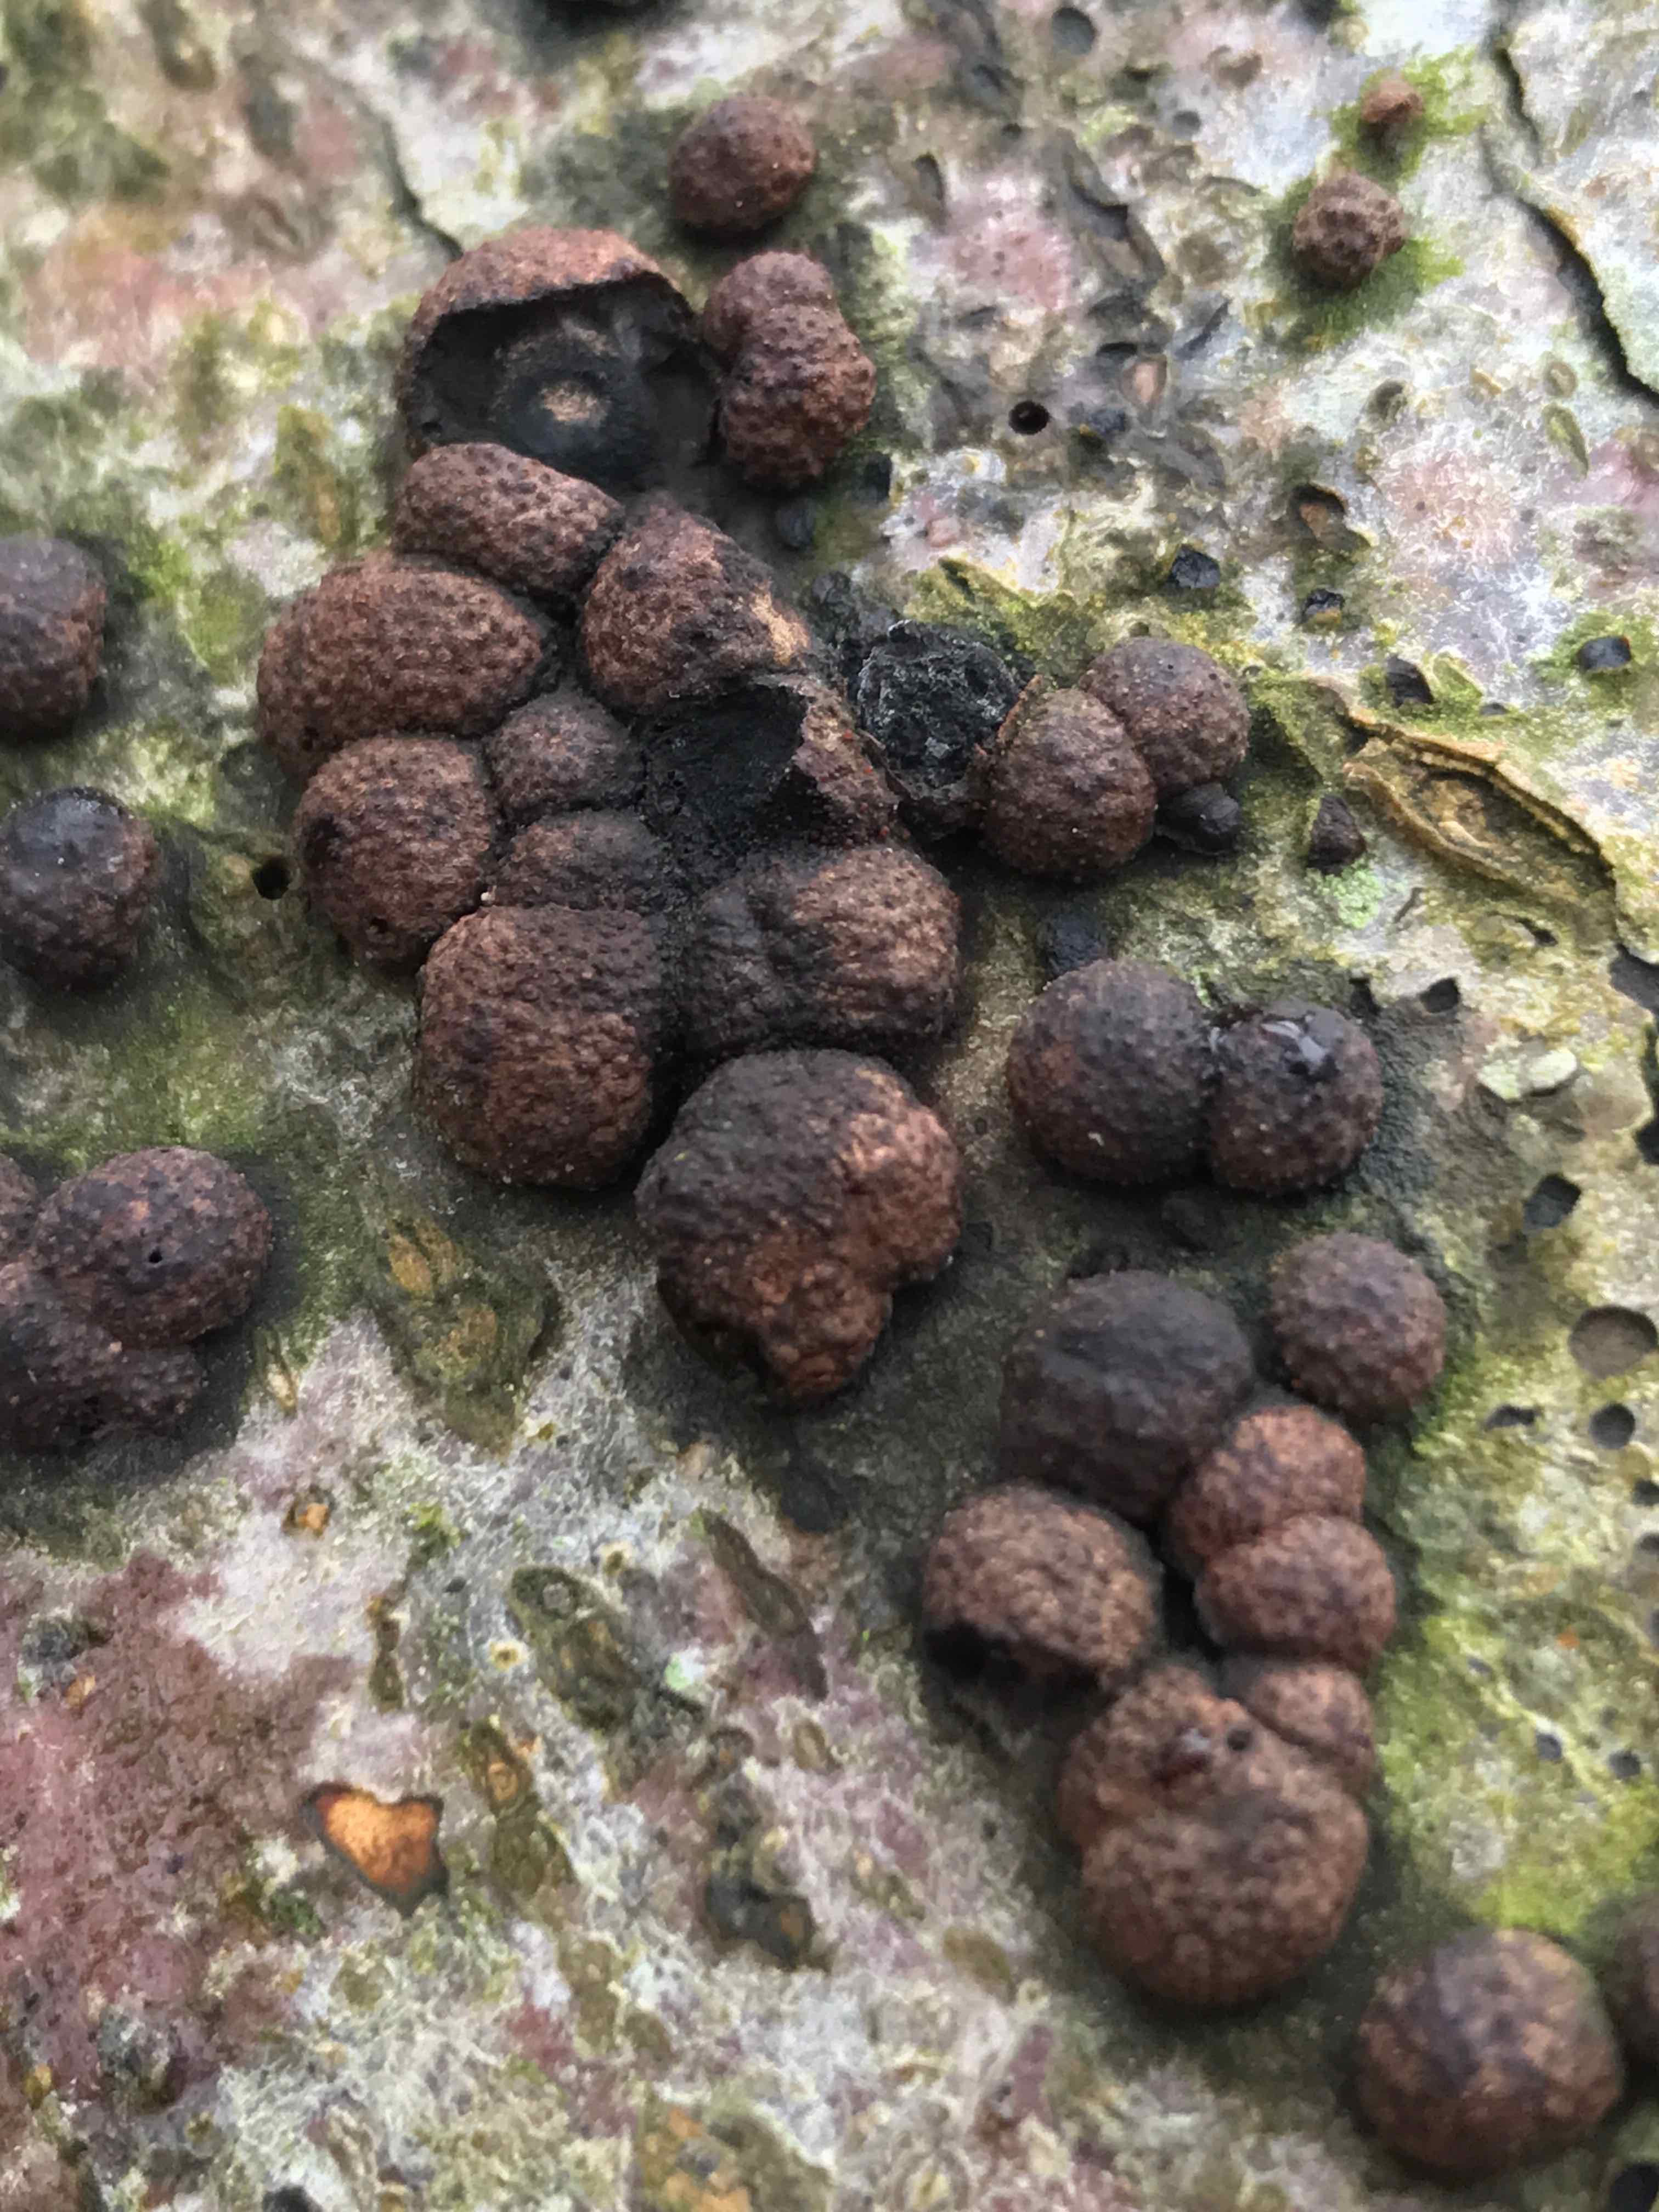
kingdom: Fungi
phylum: Ascomycota
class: Sordariomycetes
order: Xylariales
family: Hypoxylaceae
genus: Hypoxylon
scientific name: Hypoxylon fragiforme
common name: kuljordbær
